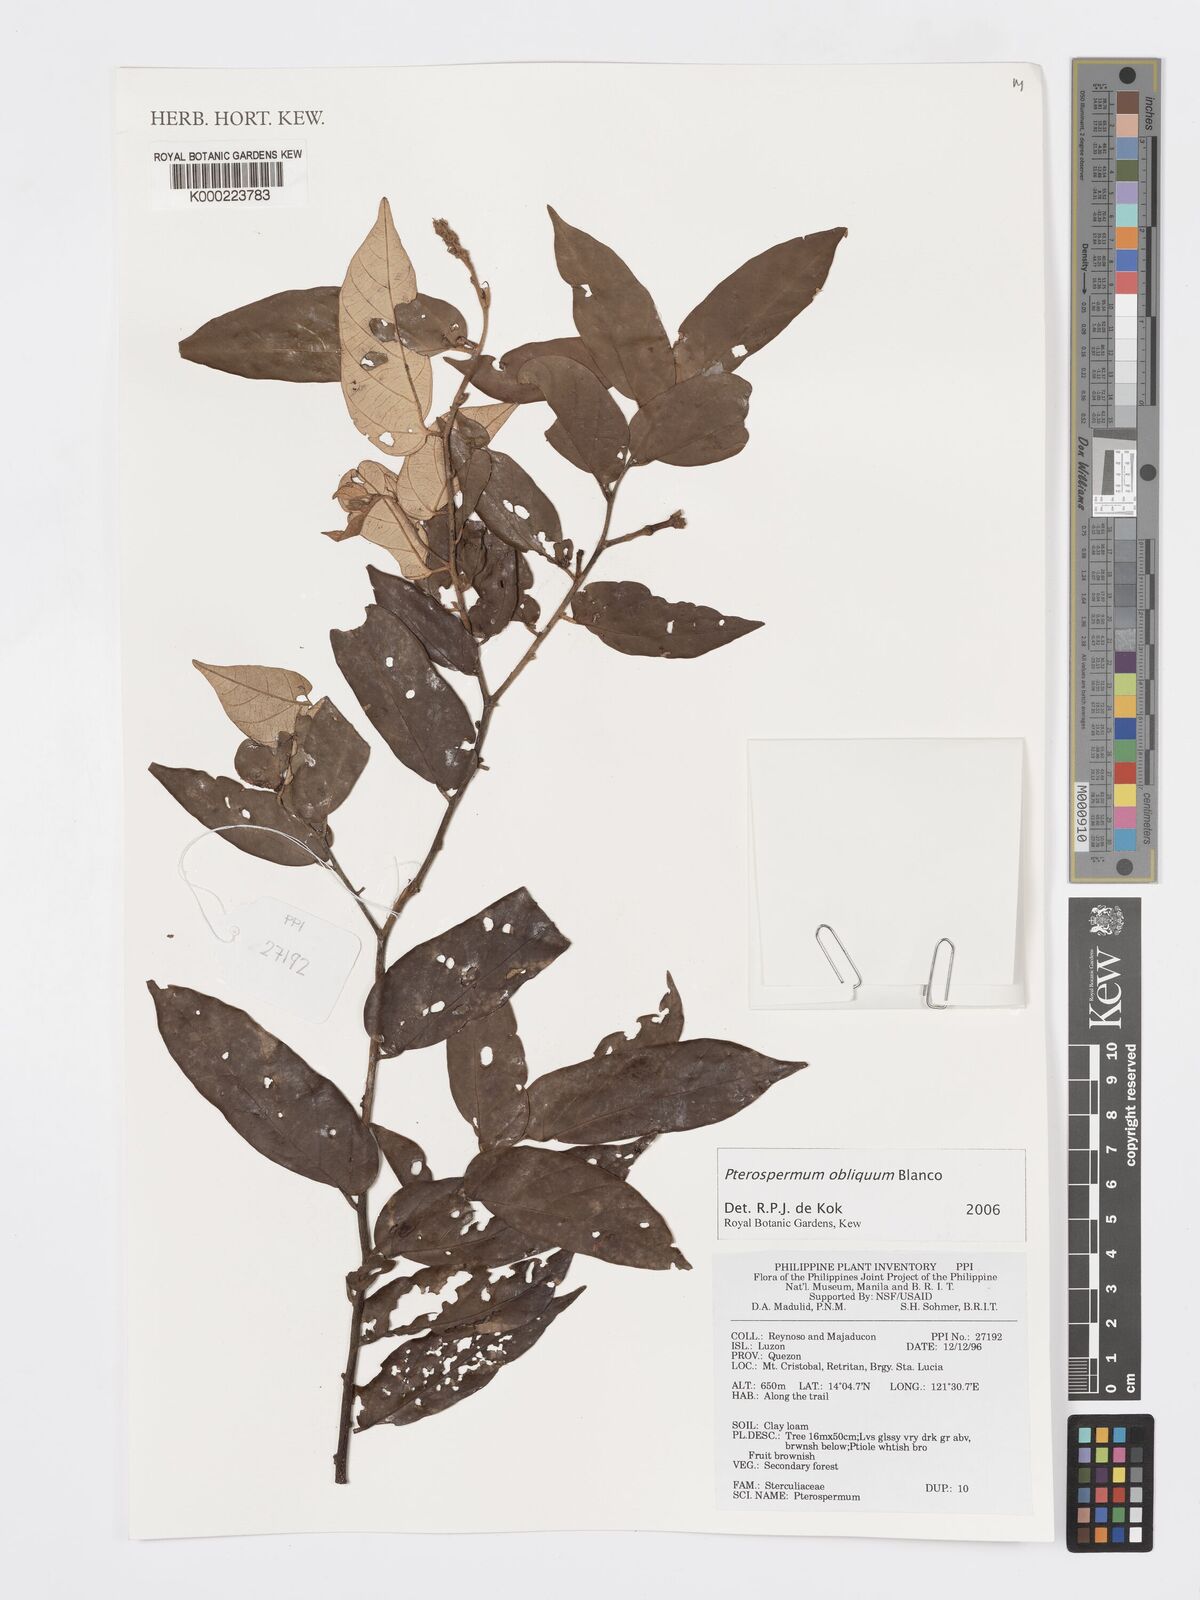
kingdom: Plantae
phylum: Tracheophyta
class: Magnoliopsida
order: Malvales
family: Malvaceae
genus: Pterospermum
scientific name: Pterospermum obliquum
